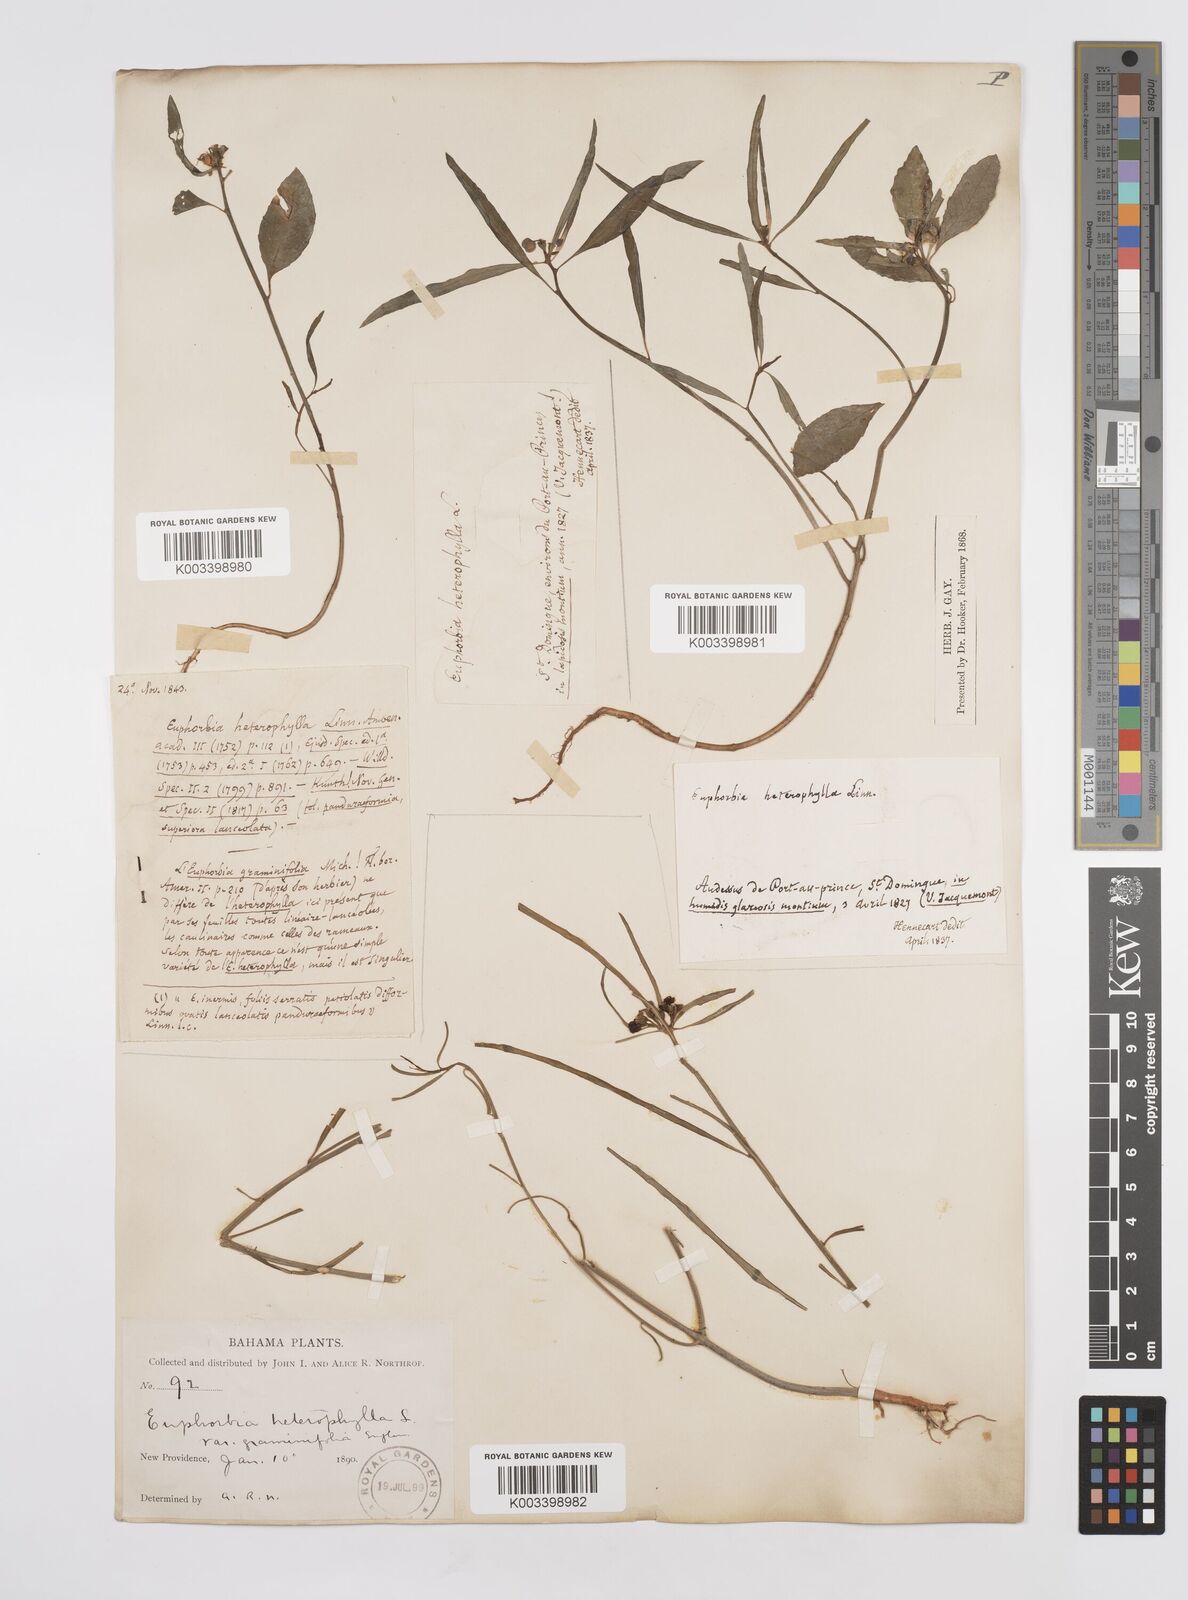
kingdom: Plantae
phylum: Tracheophyta
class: Magnoliopsida
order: Malpighiales
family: Euphorbiaceae
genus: Euphorbia
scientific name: Euphorbia heterophylla
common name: Mexican fireplant
